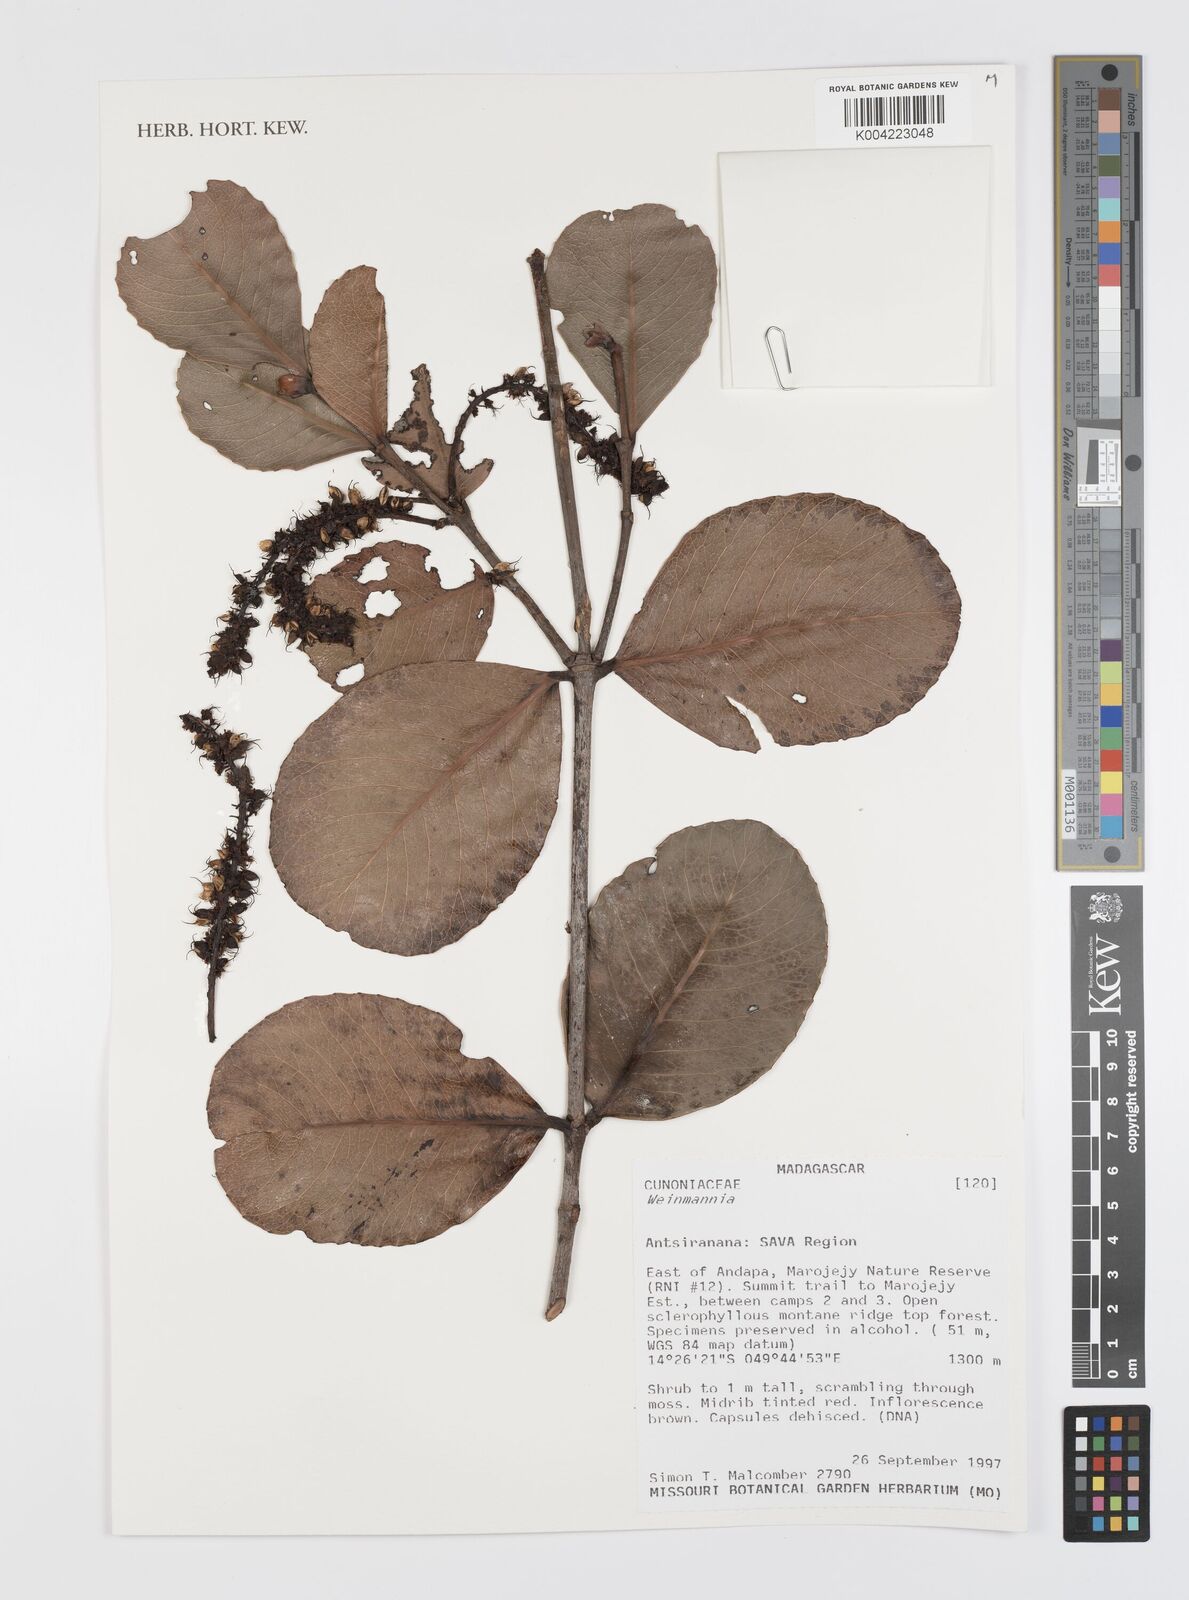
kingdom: Plantae
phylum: Tracheophyta
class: Magnoliopsida
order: Oxalidales
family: Cunoniaceae
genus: Weinmannia
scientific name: Weinmannia
